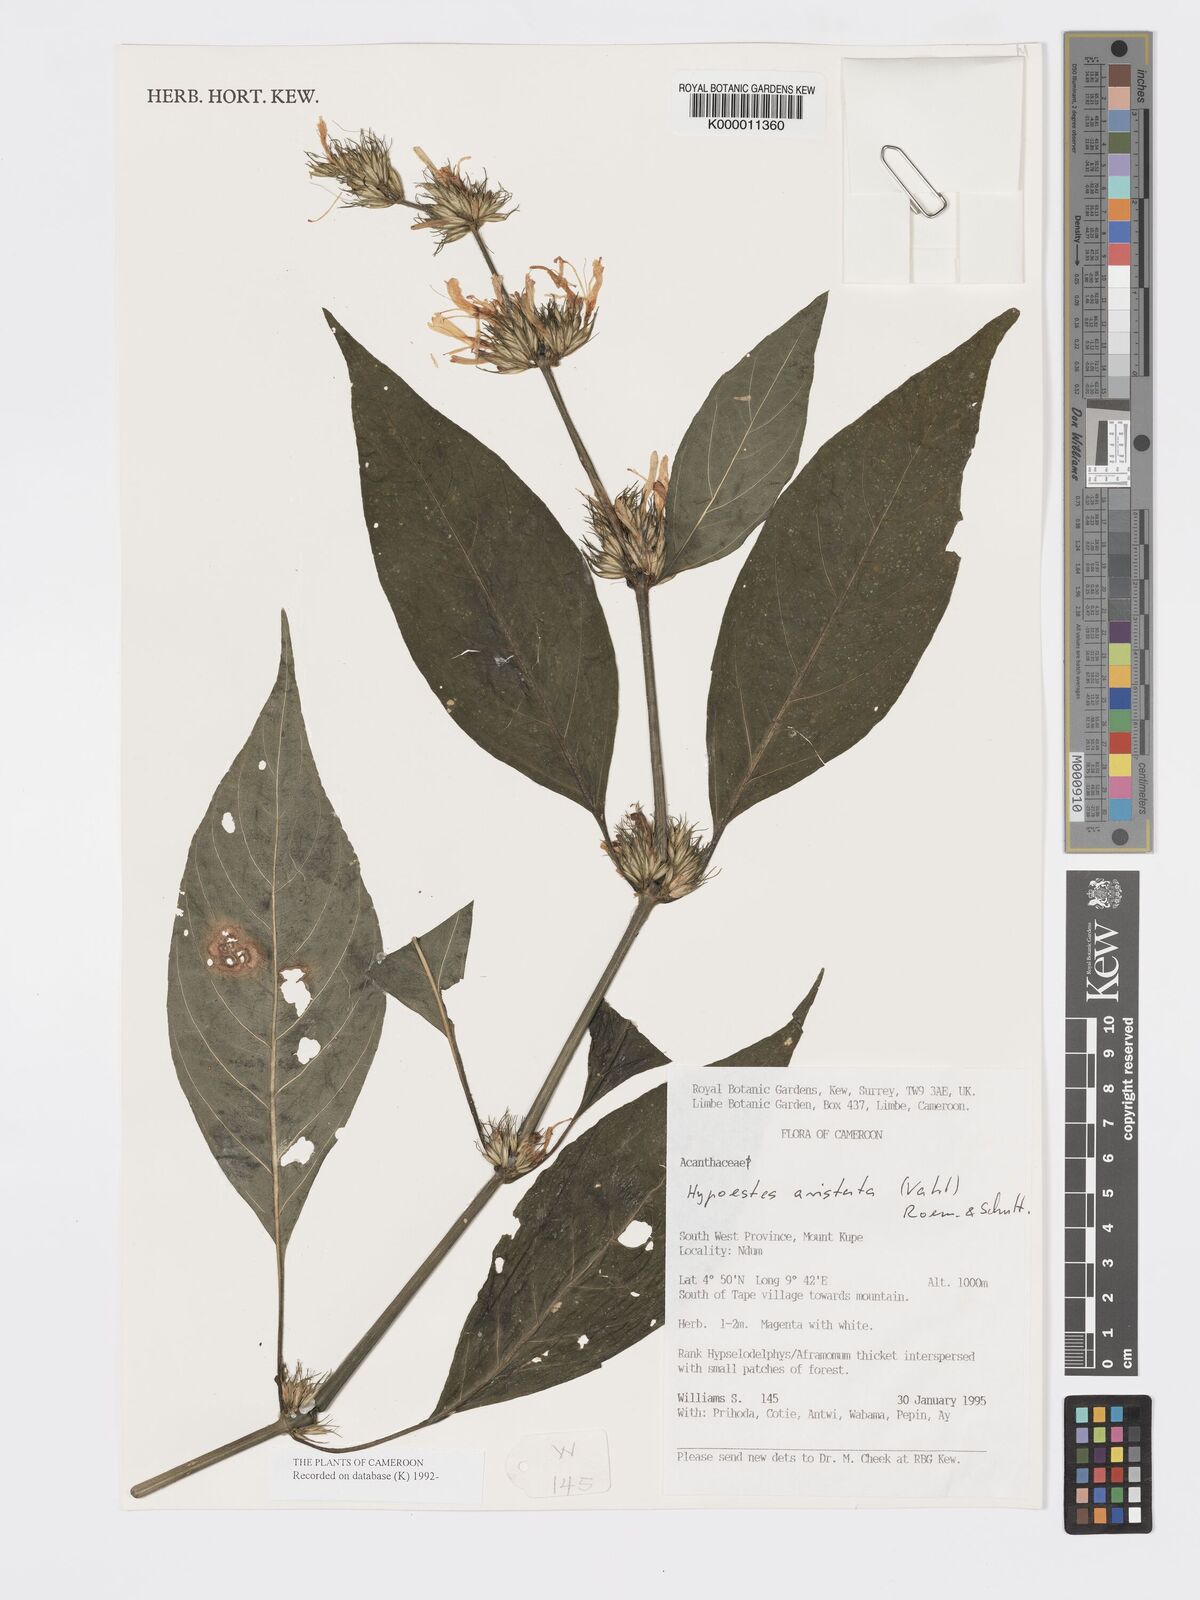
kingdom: Plantae
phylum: Tracheophyta
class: Magnoliopsida
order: Lamiales
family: Acanthaceae
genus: Hypoestes
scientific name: Hypoestes aristata
